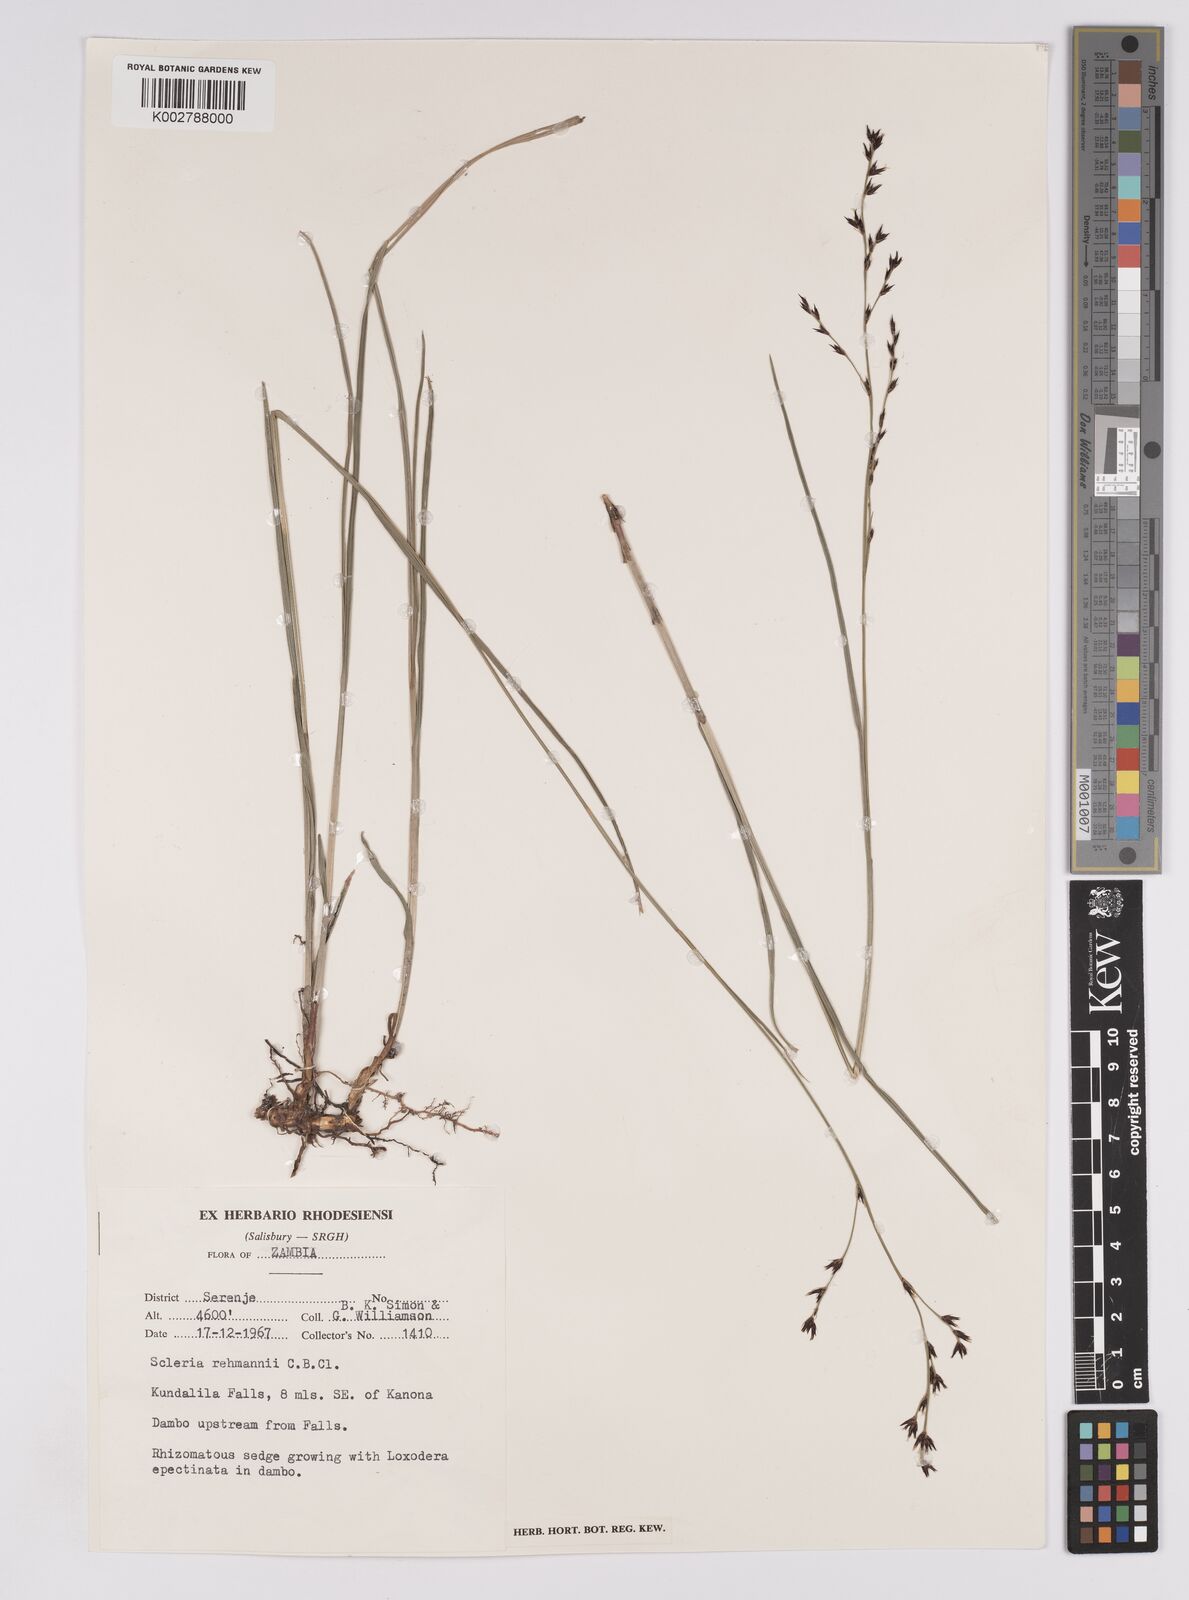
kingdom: Plantae
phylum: Tracheophyta
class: Liliopsida
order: Poales
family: Cyperaceae
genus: Scleria
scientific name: Scleria rehmannii
